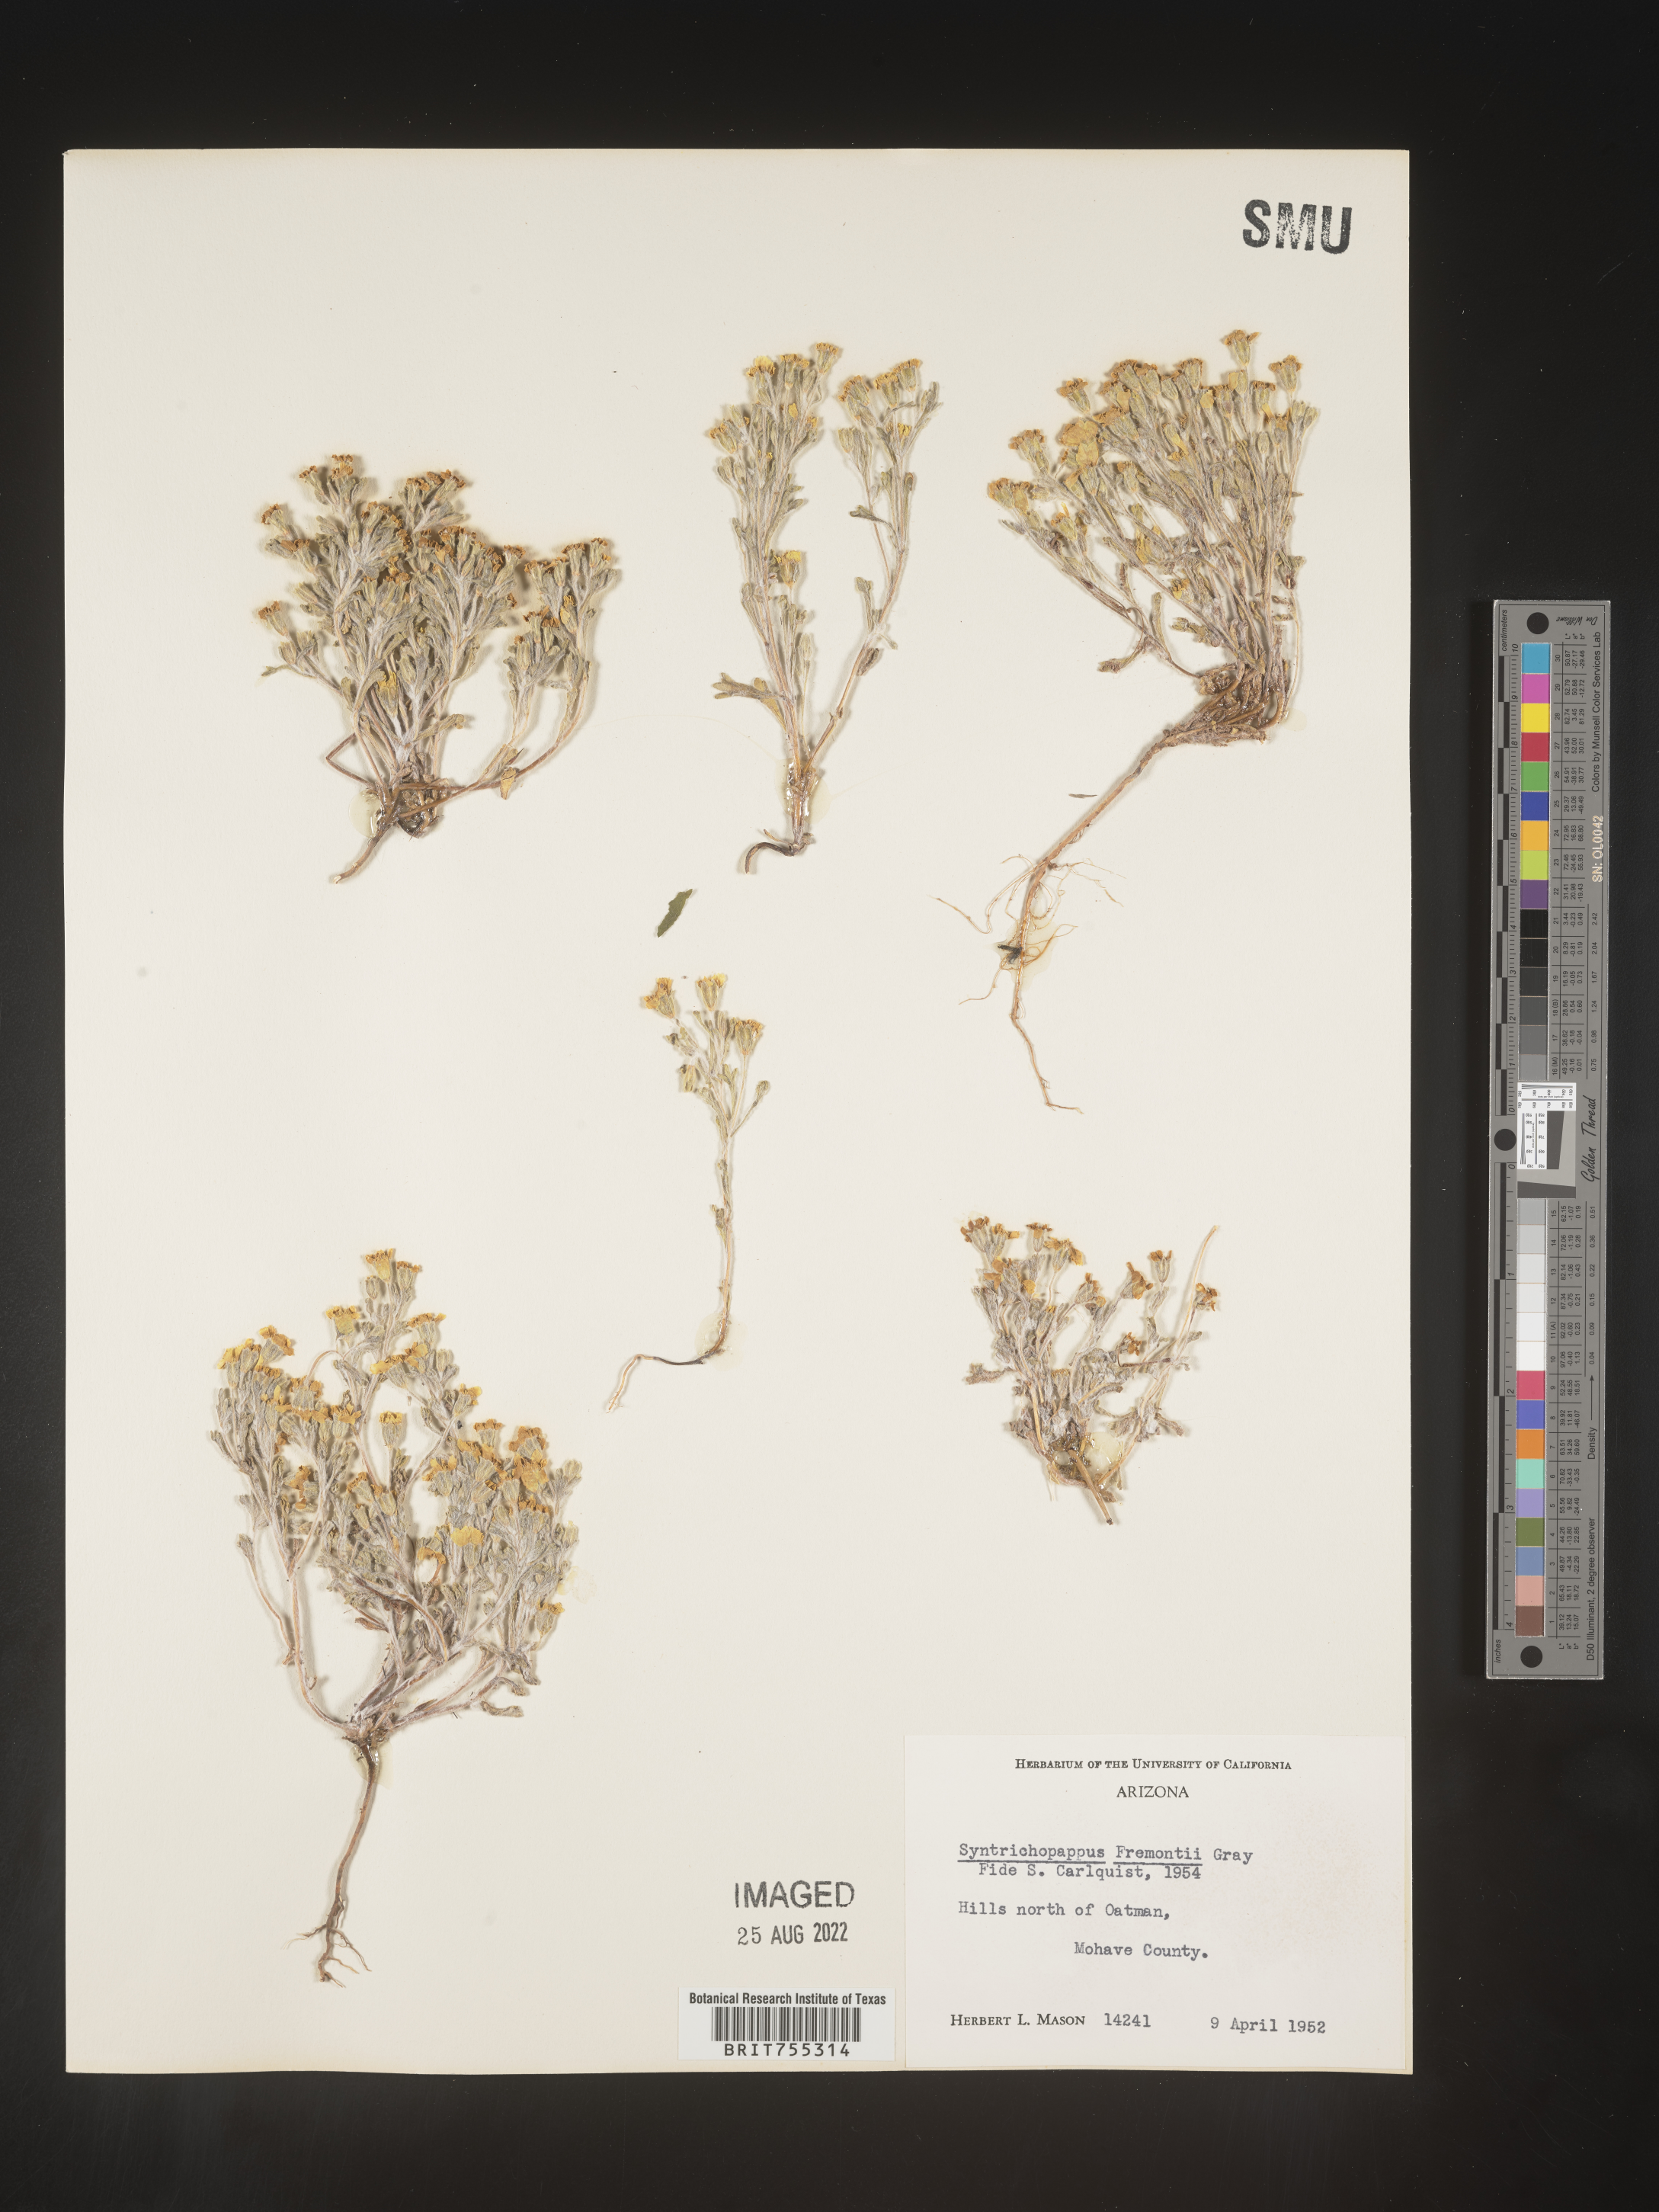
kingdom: Plantae
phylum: Tracheophyta
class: Magnoliopsida
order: Asterales
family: Asteraceae
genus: Syntrichopappus
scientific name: Syntrichopappus
